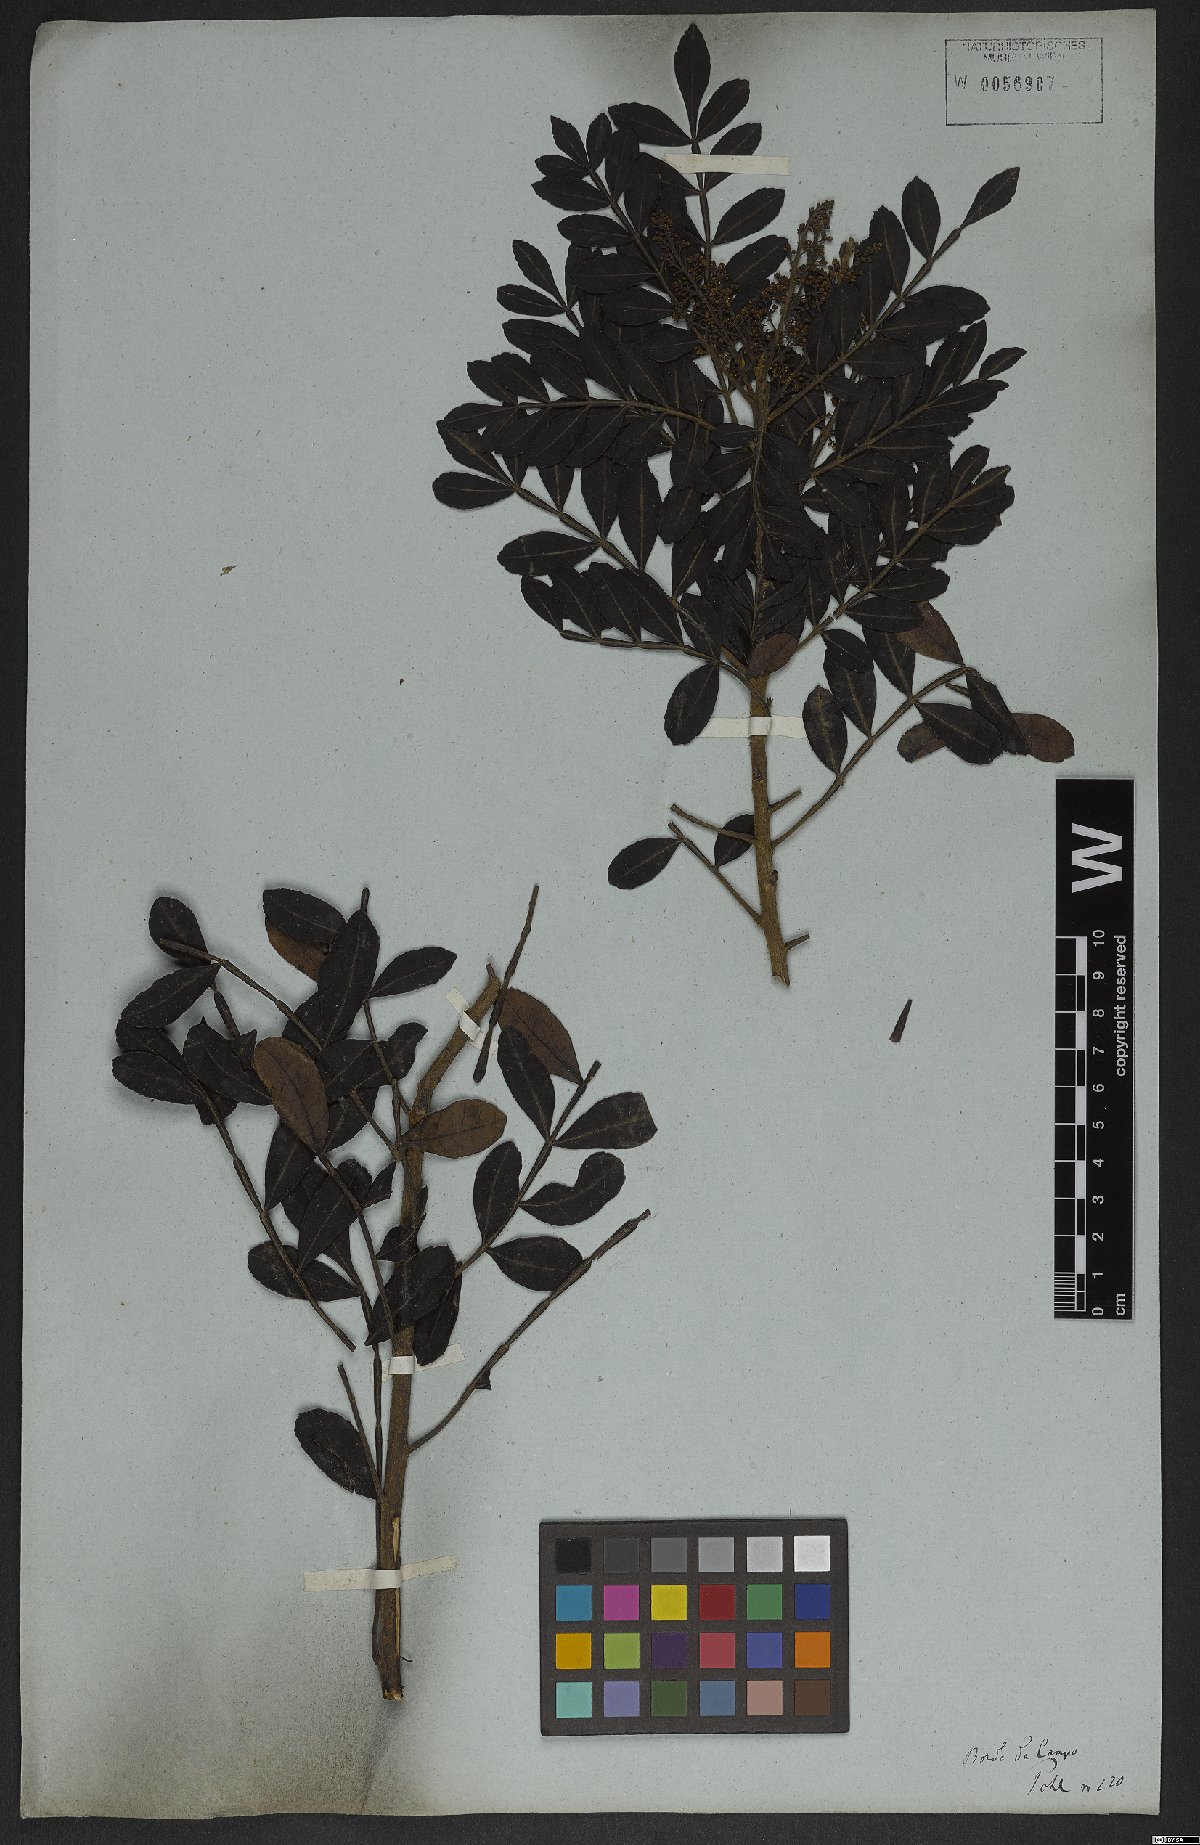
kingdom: Plantae
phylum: Tracheophyta
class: Magnoliopsida
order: Sapindales
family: Anacardiaceae
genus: Schinus
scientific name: Schinus terebinthifolia
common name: Brazilian peppertree
